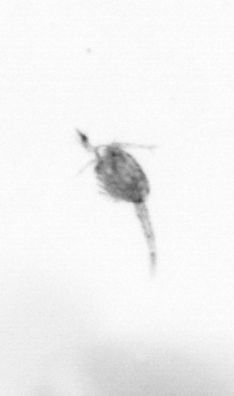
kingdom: Animalia
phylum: Arthropoda
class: Copepoda
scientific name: Copepoda
